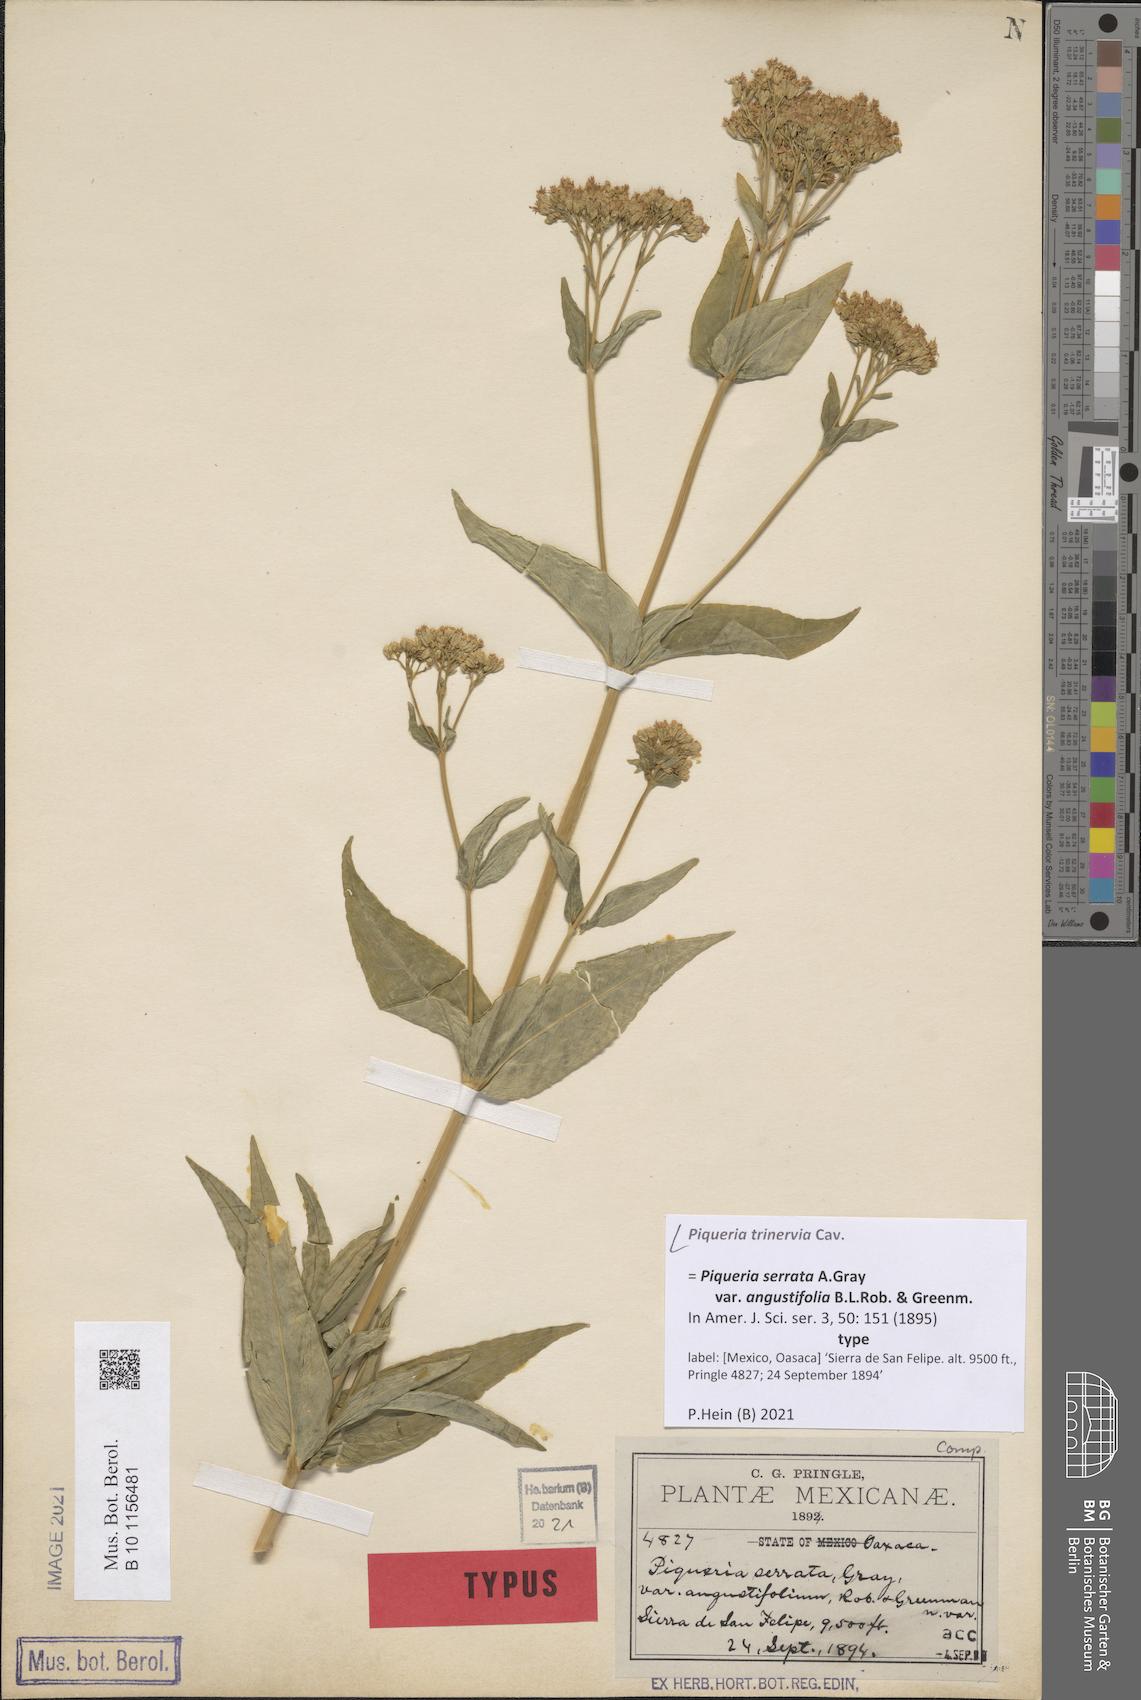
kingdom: Plantae
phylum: Tracheophyta
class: Magnoliopsida
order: Asterales
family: Asteraceae
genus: Piqueria
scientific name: Piqueria trinervia
